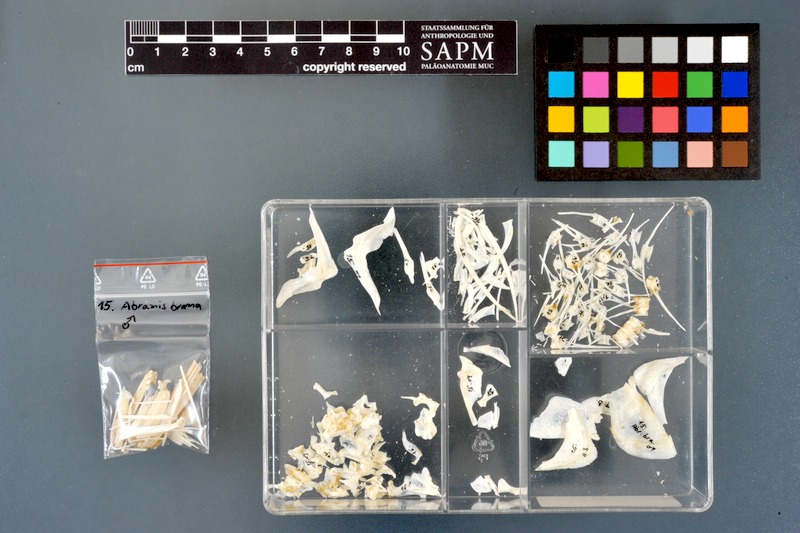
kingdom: Animalia
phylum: Chordata
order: Cypriniformes
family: Cyprinidae
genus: Abramis
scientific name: Abramis brama
